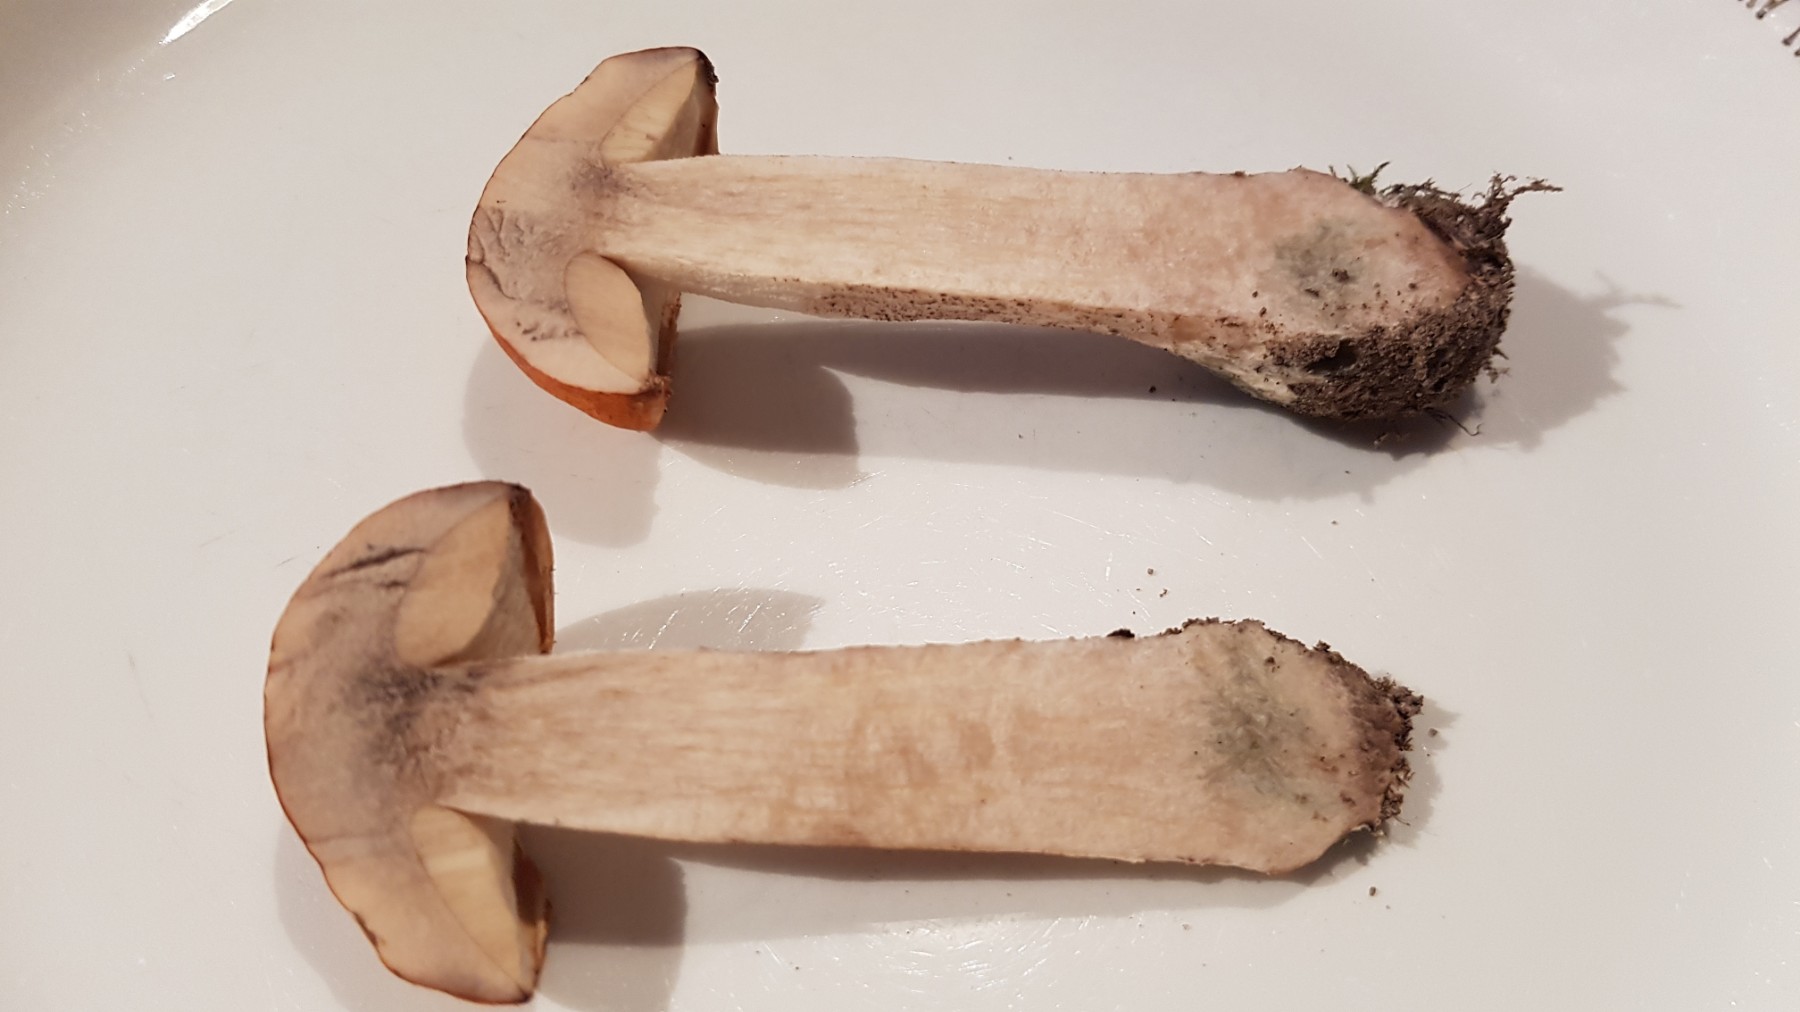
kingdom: Fungi
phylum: Basidiomycota
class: Agaricomycetes
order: Boletales
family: Boletaceae
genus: Leccinum
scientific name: Leccinum albostipitatum
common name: aspe-skælrørhat
